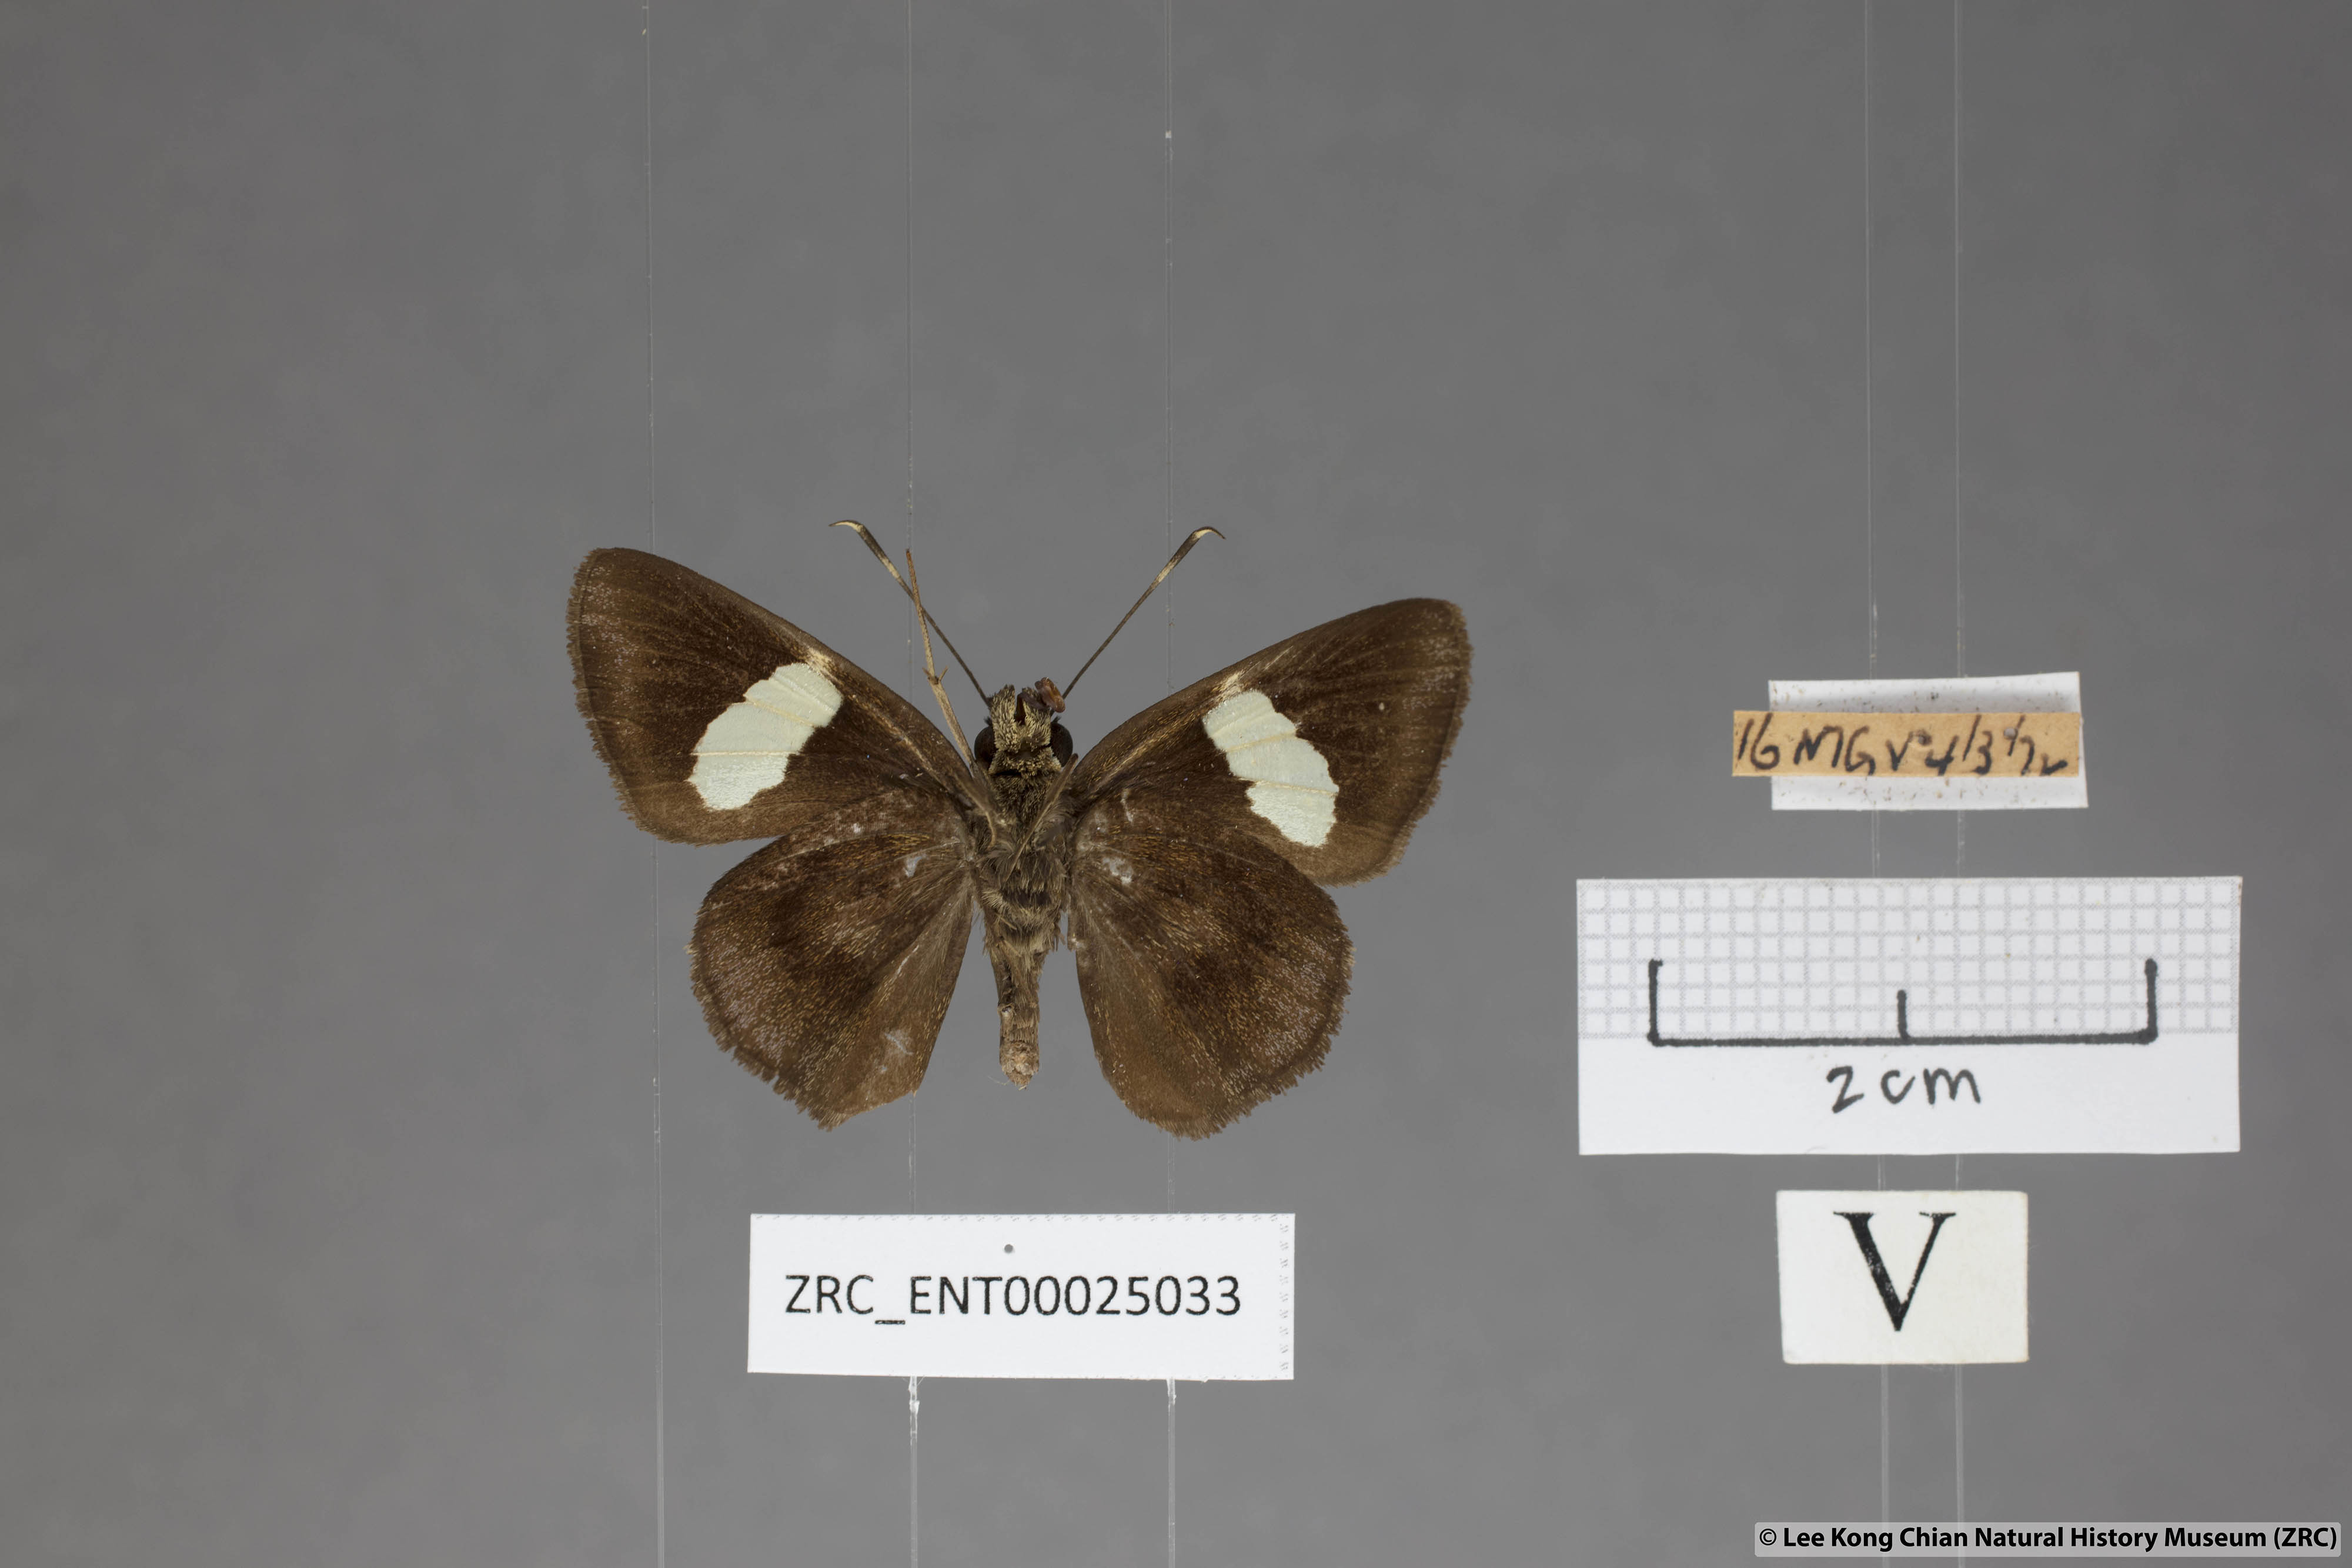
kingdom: Animalia
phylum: Arthropoda
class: Insecta
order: Lepidoptera
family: Hesperiidae
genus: Notocrypta
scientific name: Notocrypta paralysos
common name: Common banded demon
